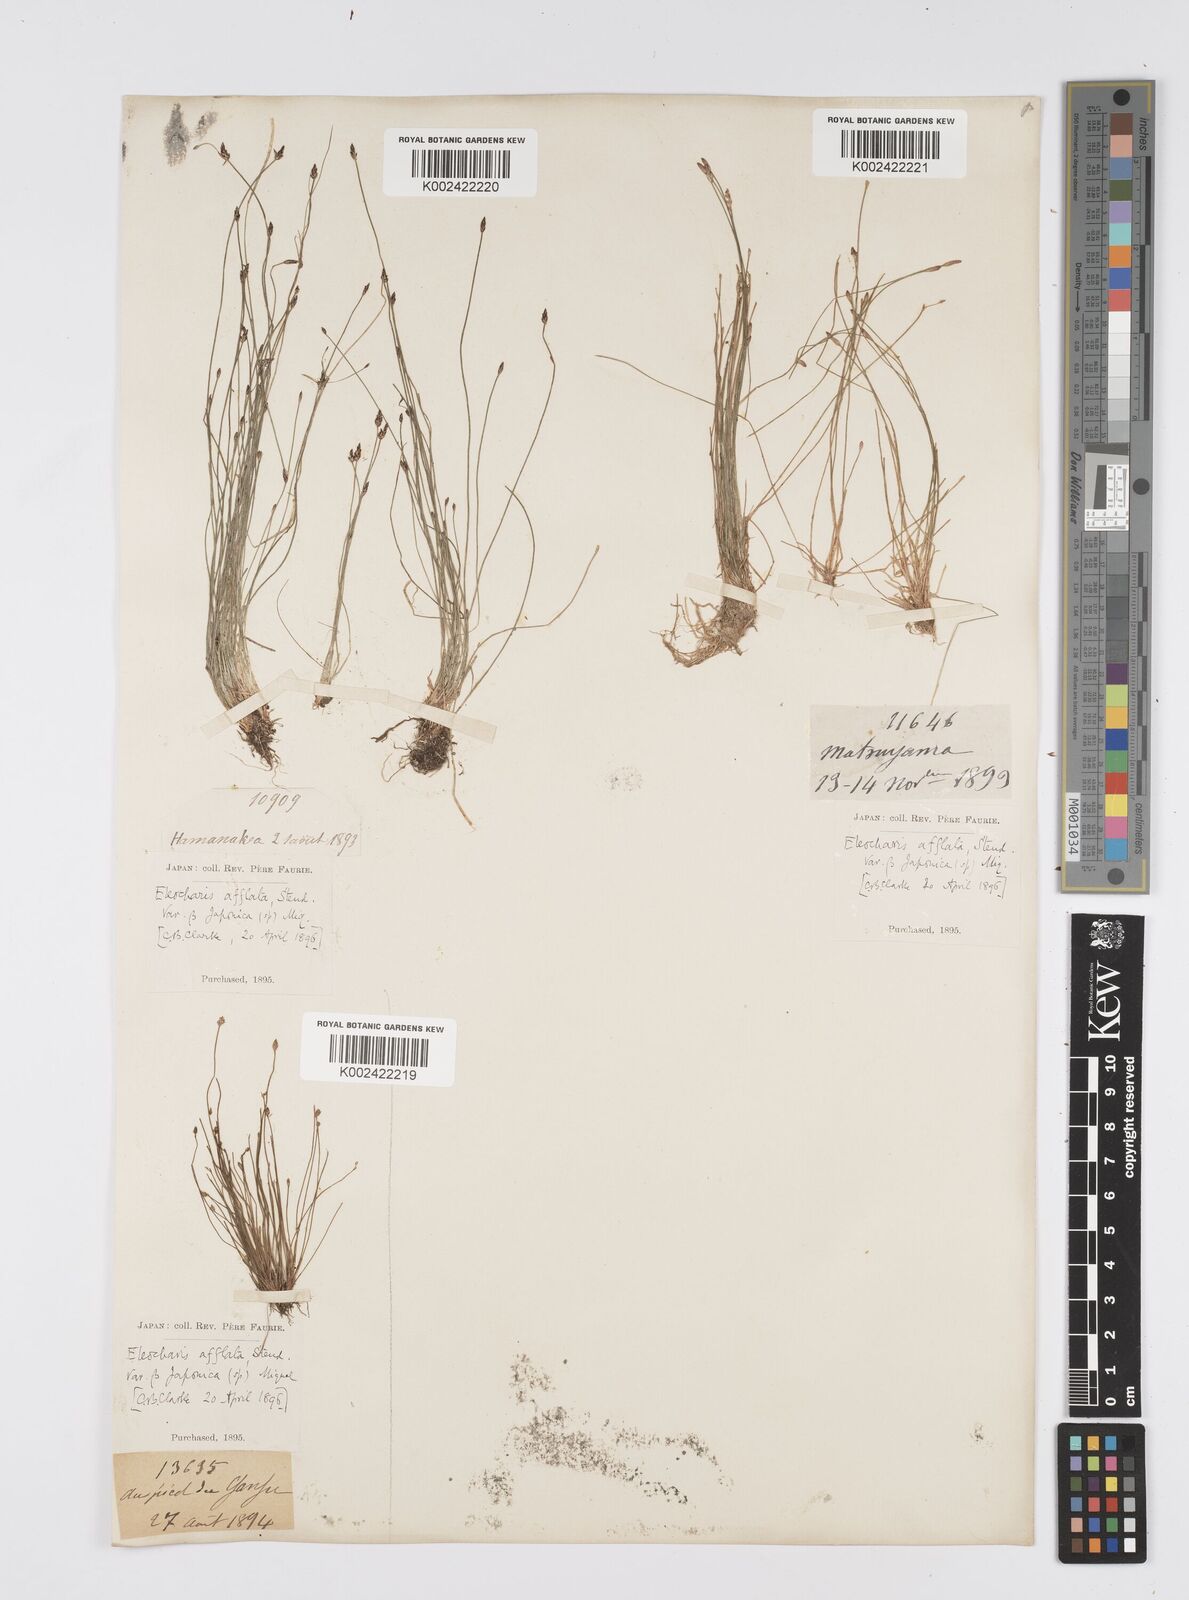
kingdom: Plantae
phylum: Tracheophyta
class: Liliopsida
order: Poales
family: Cyperaceae
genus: Eleocharis
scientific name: Eleocharis pellucida
